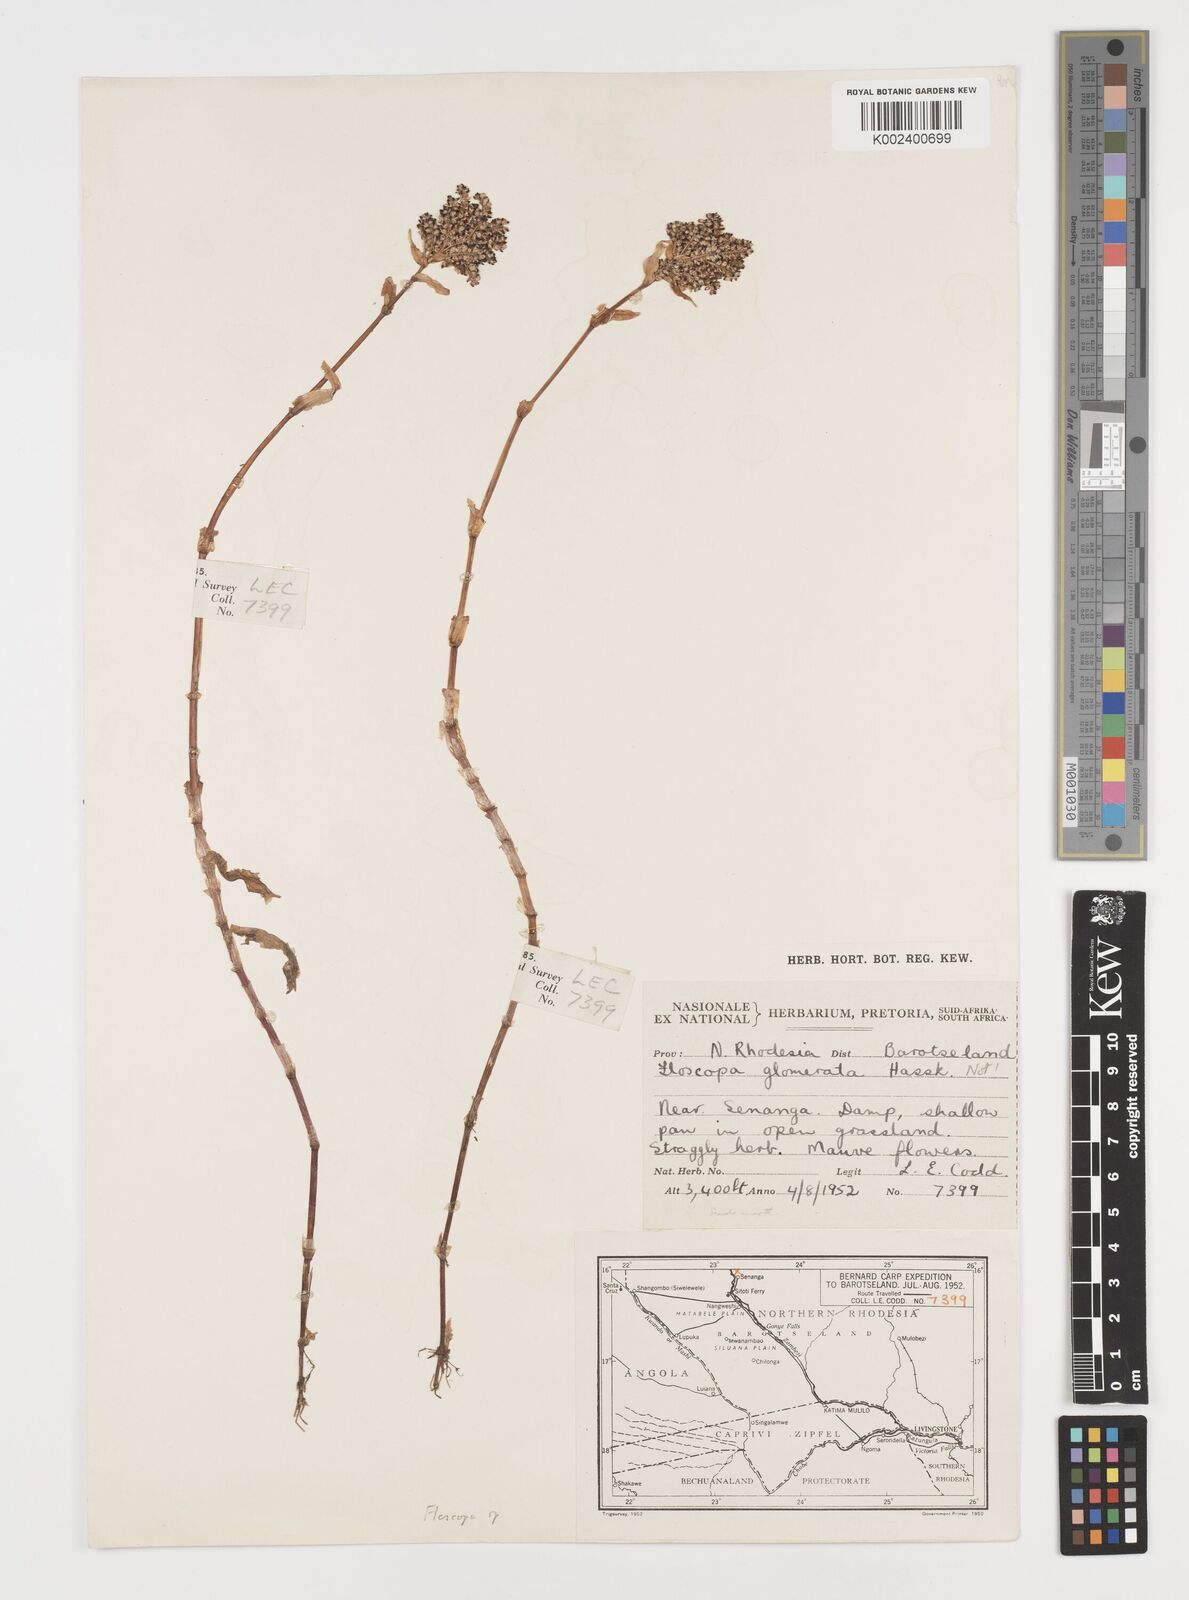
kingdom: Plantae
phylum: Tracheophyta
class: Liliopsida
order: Commelinales
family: Commelinaceae
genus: Floscopa
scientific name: Floscopa
